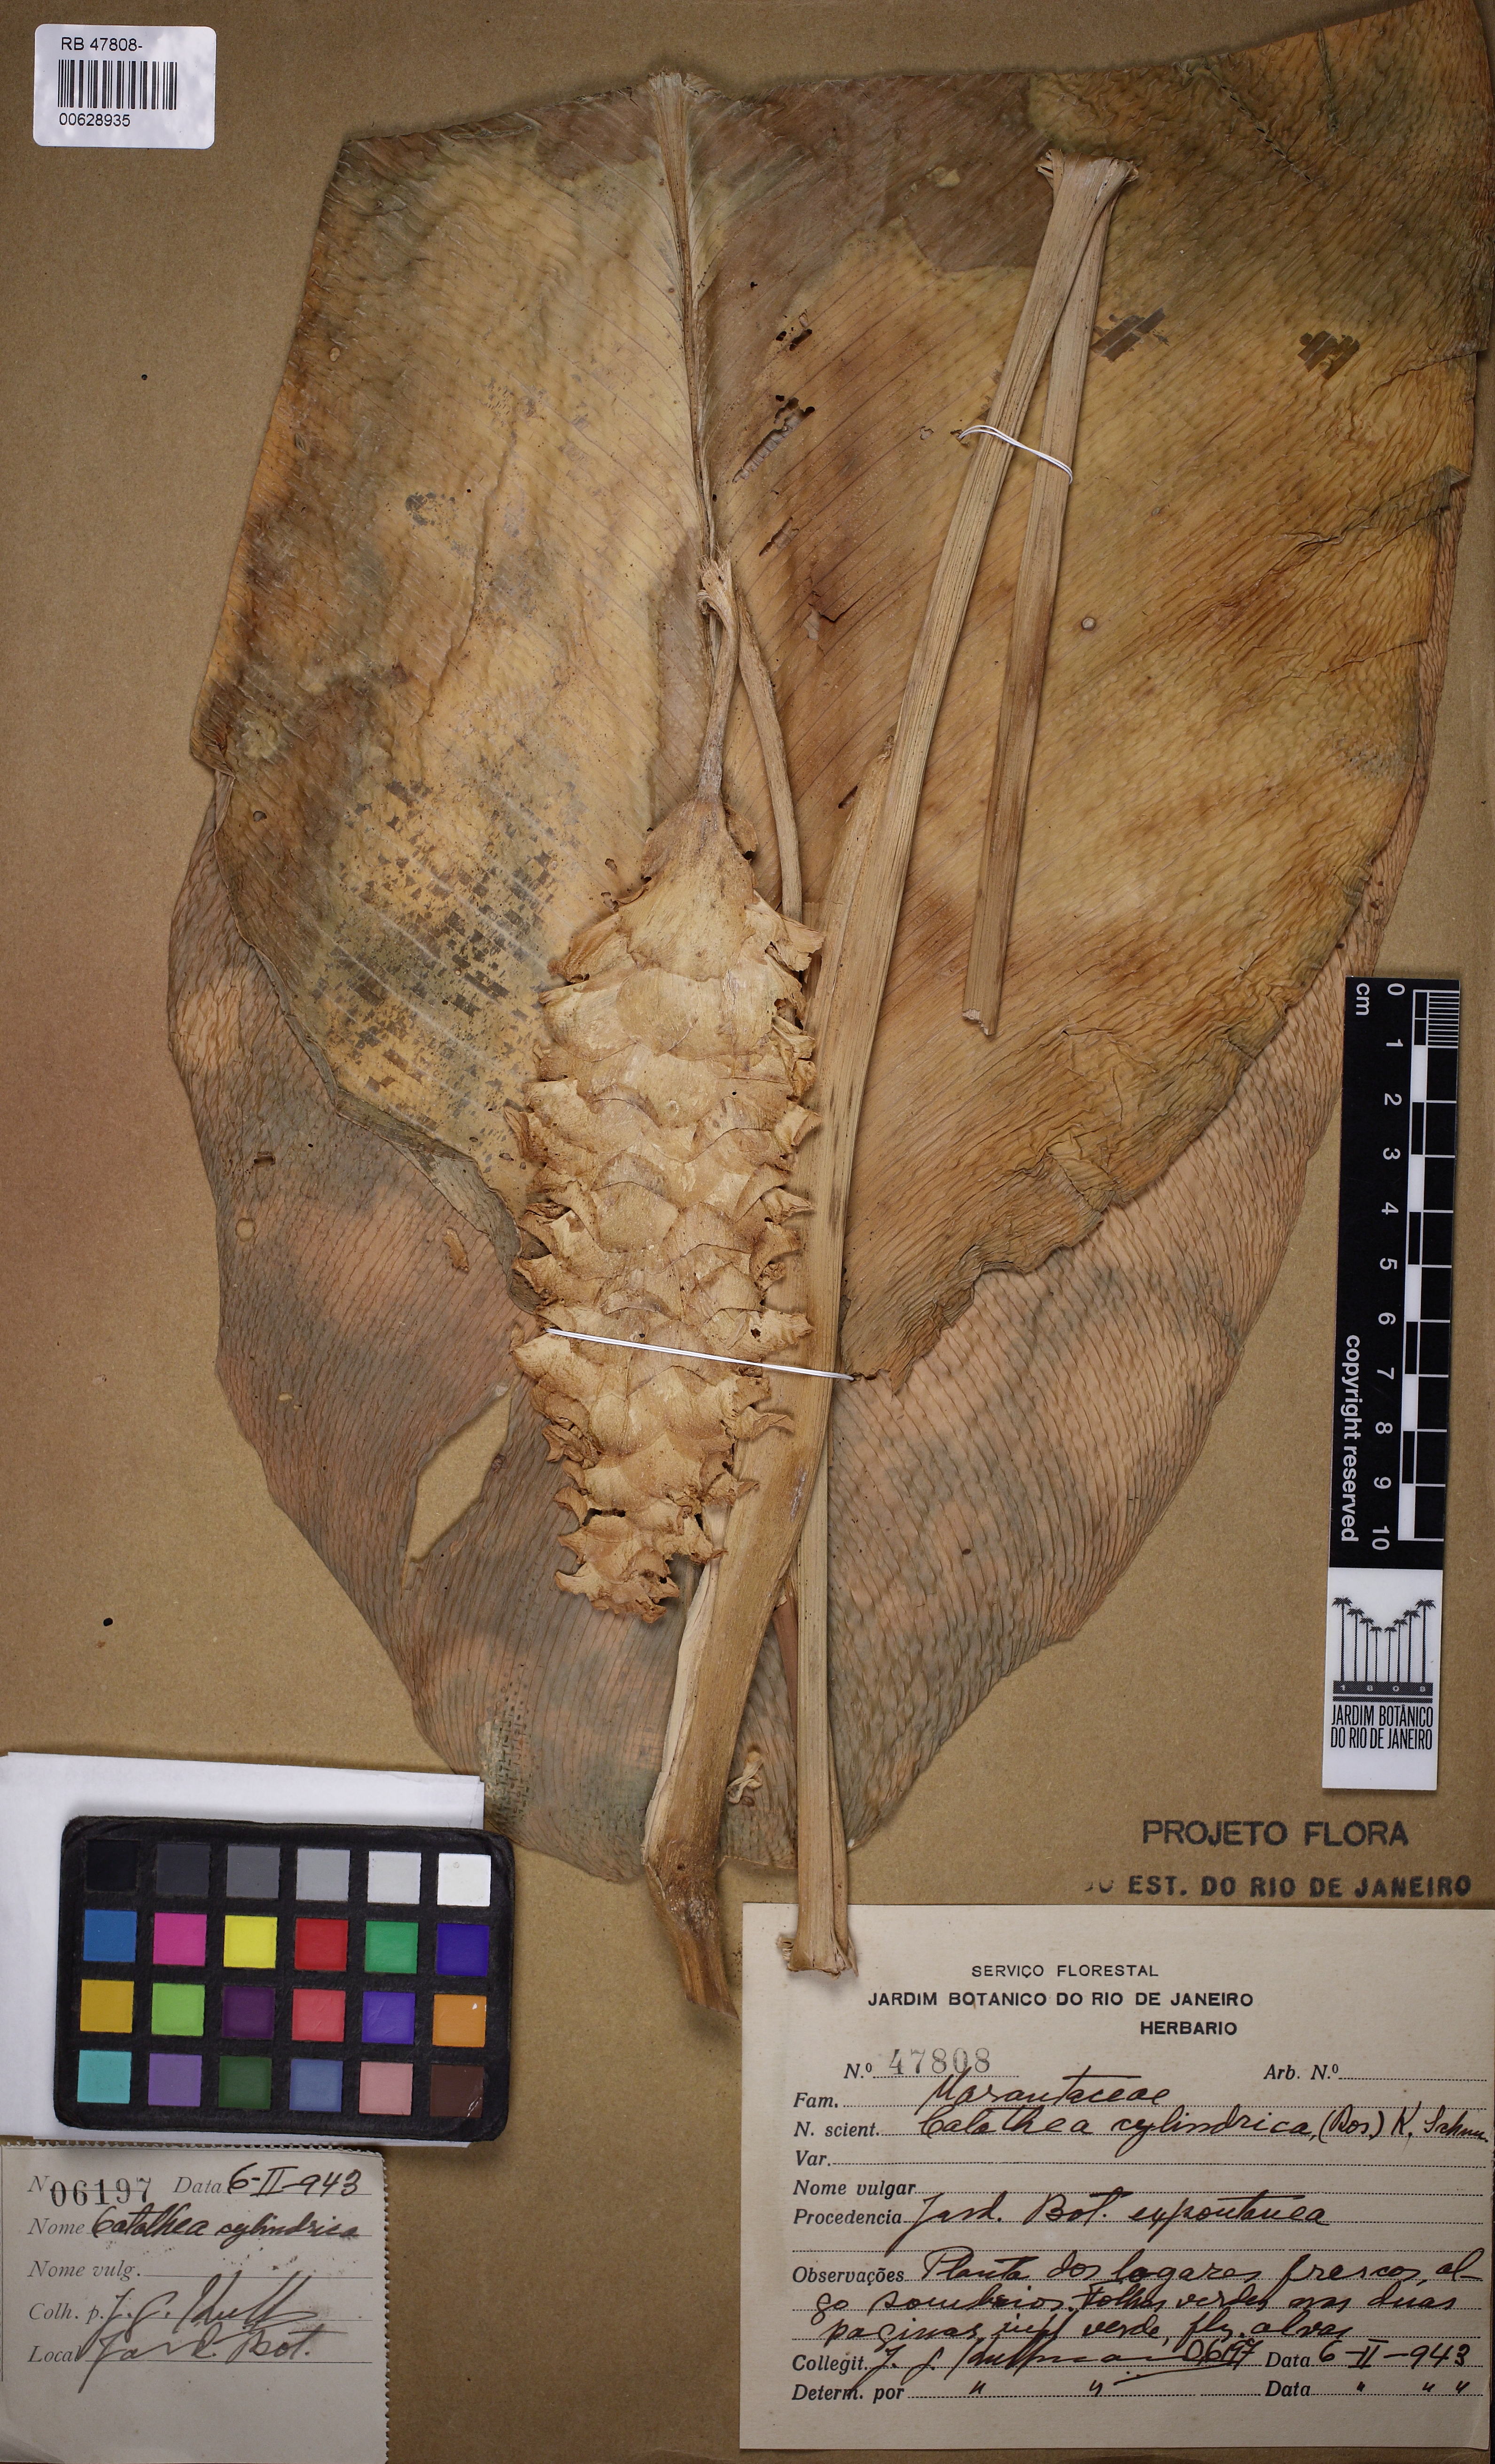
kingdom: Plantae
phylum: Tracheophyta
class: Liliopsida
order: Zingiberales
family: Marantaceae
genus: Goeppertia
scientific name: Goeppertia cylindrica
